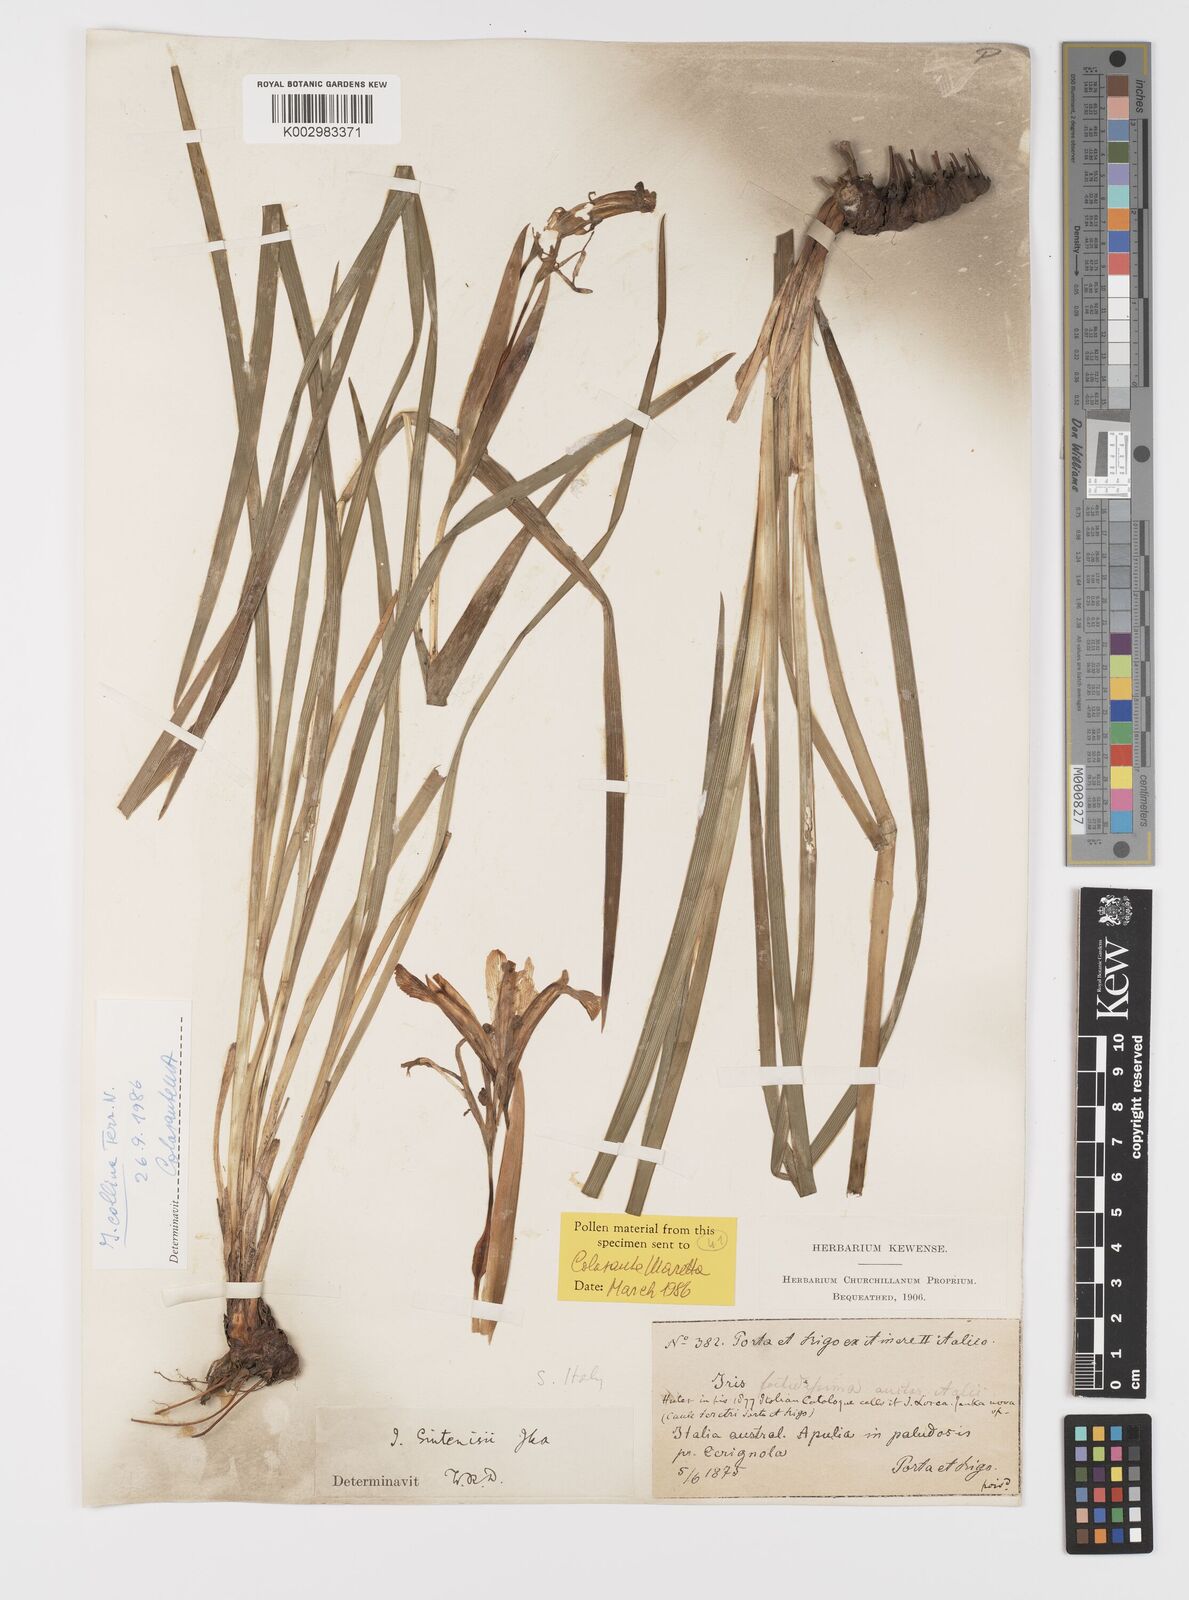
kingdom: Plantae
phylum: Tracheophyta
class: Liliopsida
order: Asparagales
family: Iridaceae
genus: Iris
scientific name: Iris sintenisii
